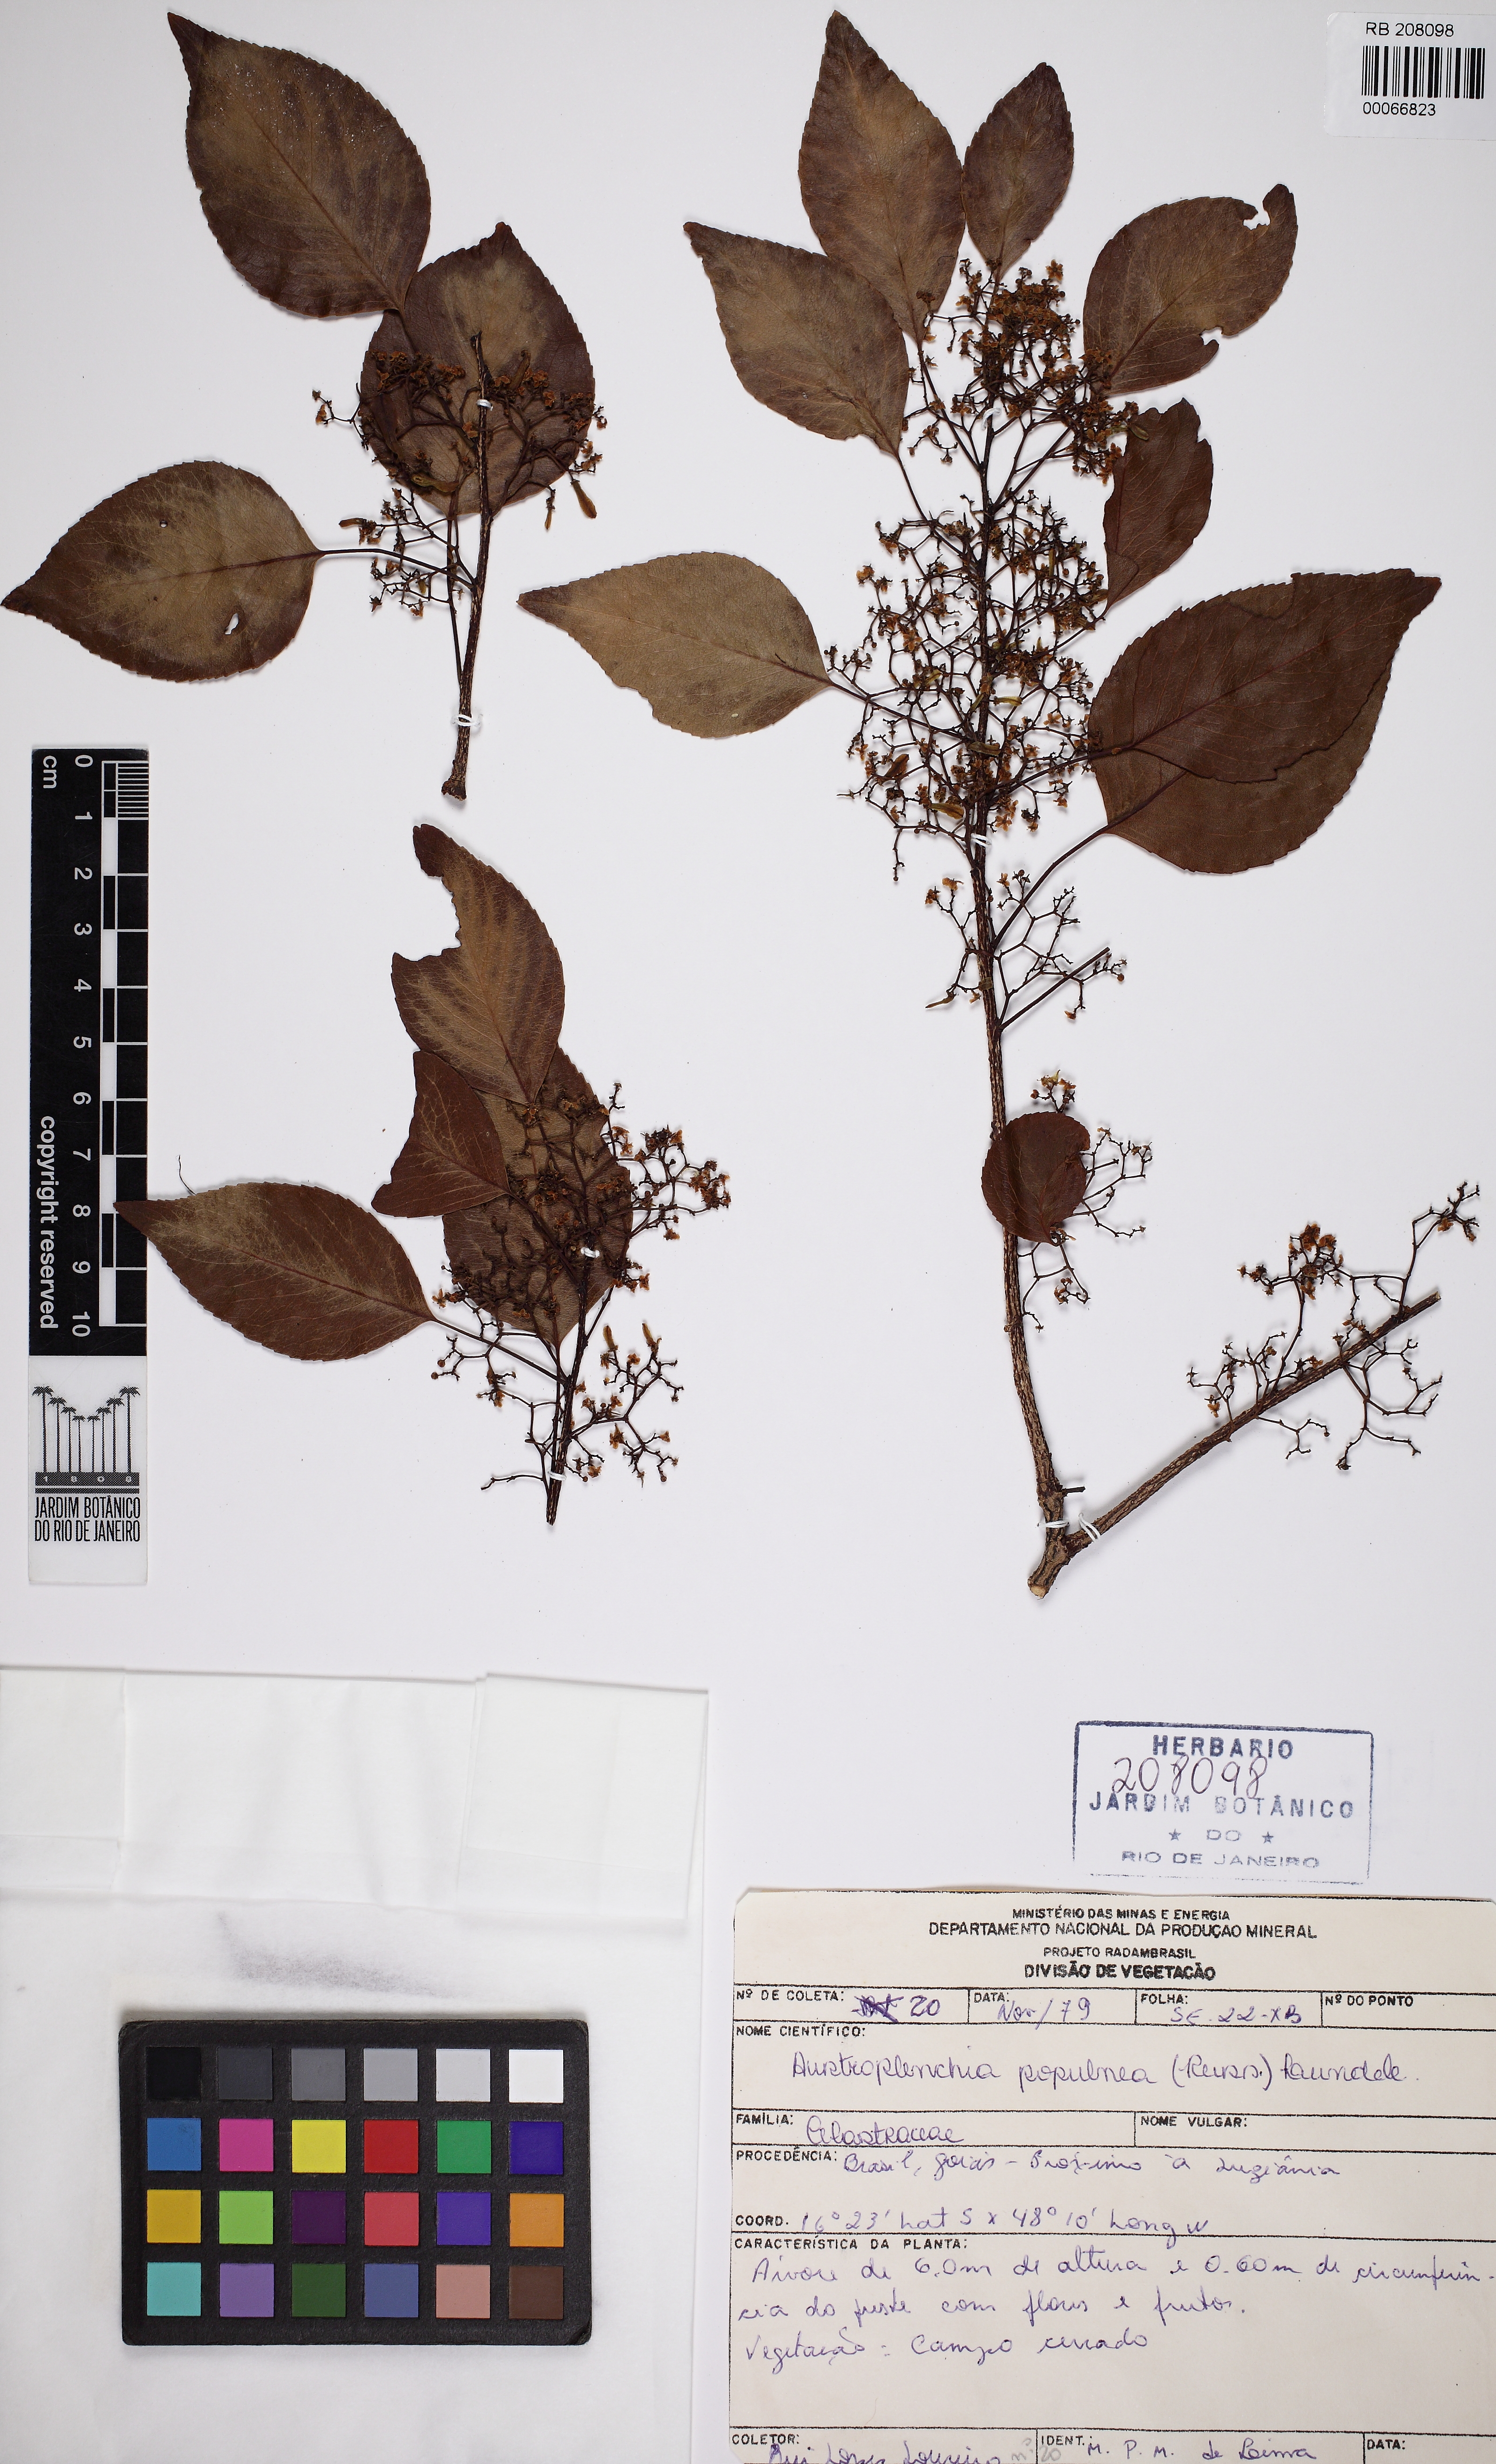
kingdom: Plantae
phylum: Tracheophyta
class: Magnoliopsida
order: Celastrales
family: Celastraceae
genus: Plenckia
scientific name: Plenckia populnea
